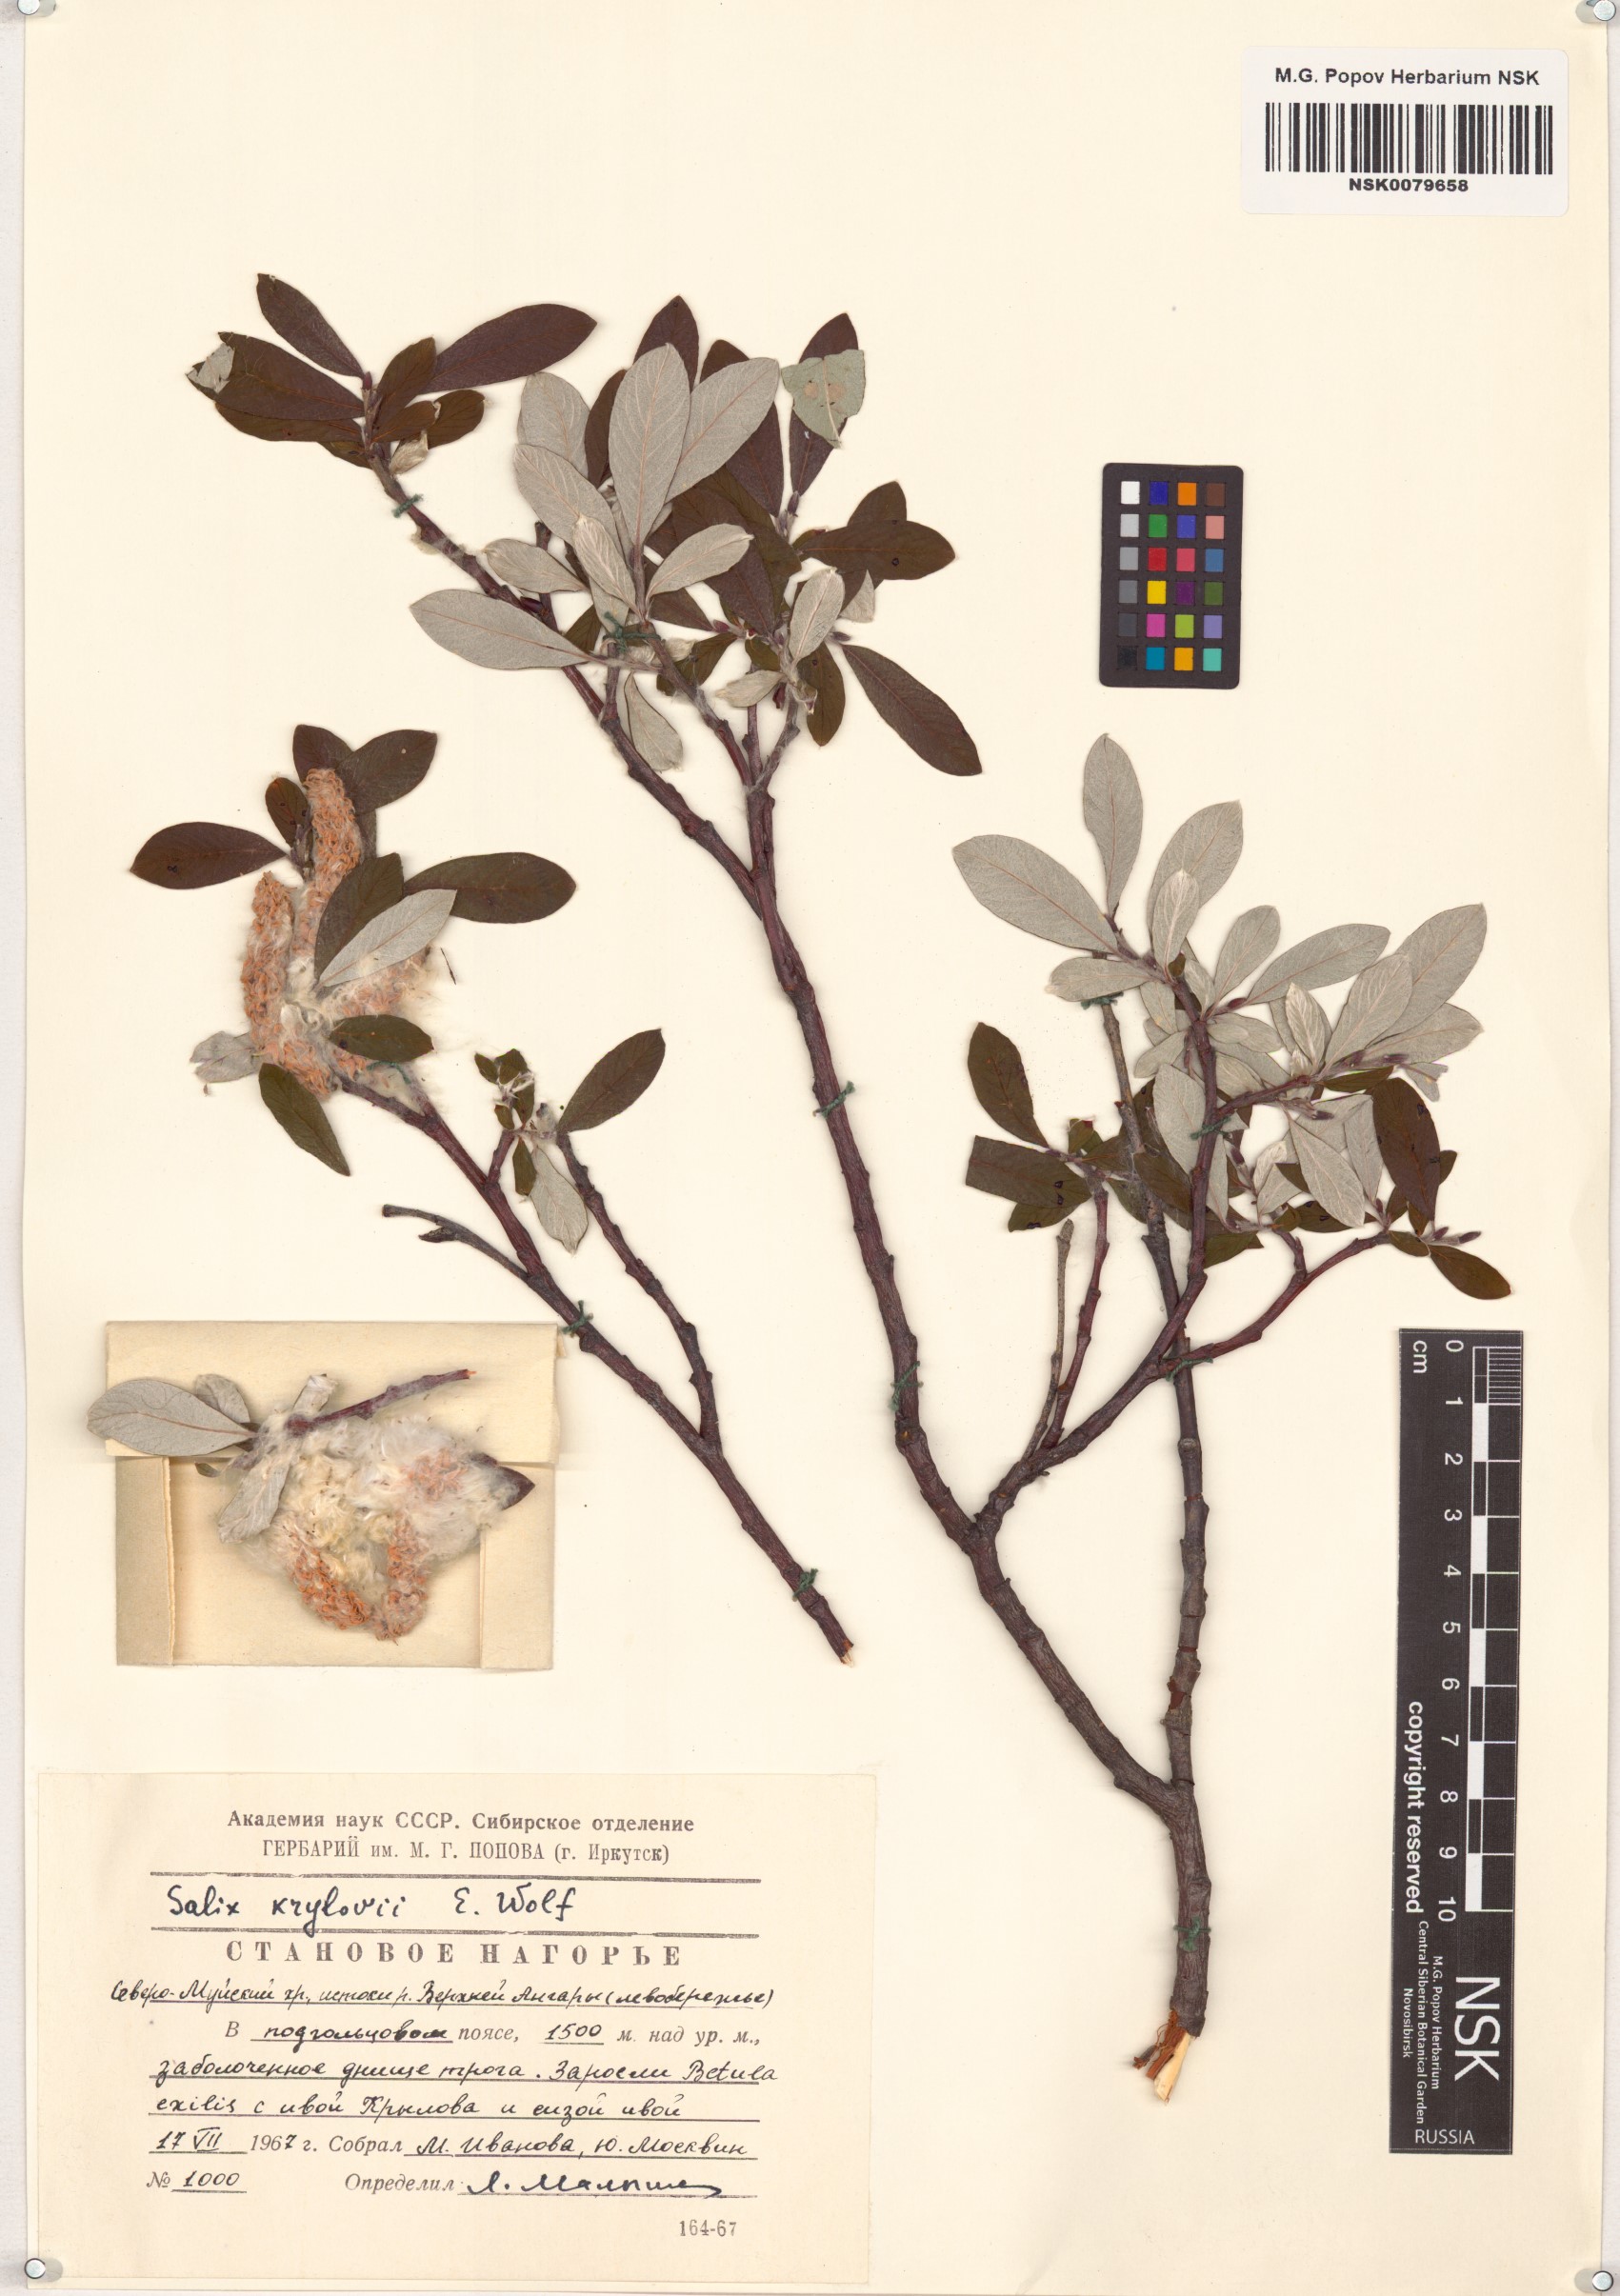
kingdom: Plantae
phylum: Tracheophyta
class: Magnoliopsida
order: Malpighiales
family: Salicaceae
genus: Salix
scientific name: Salix krylovii
